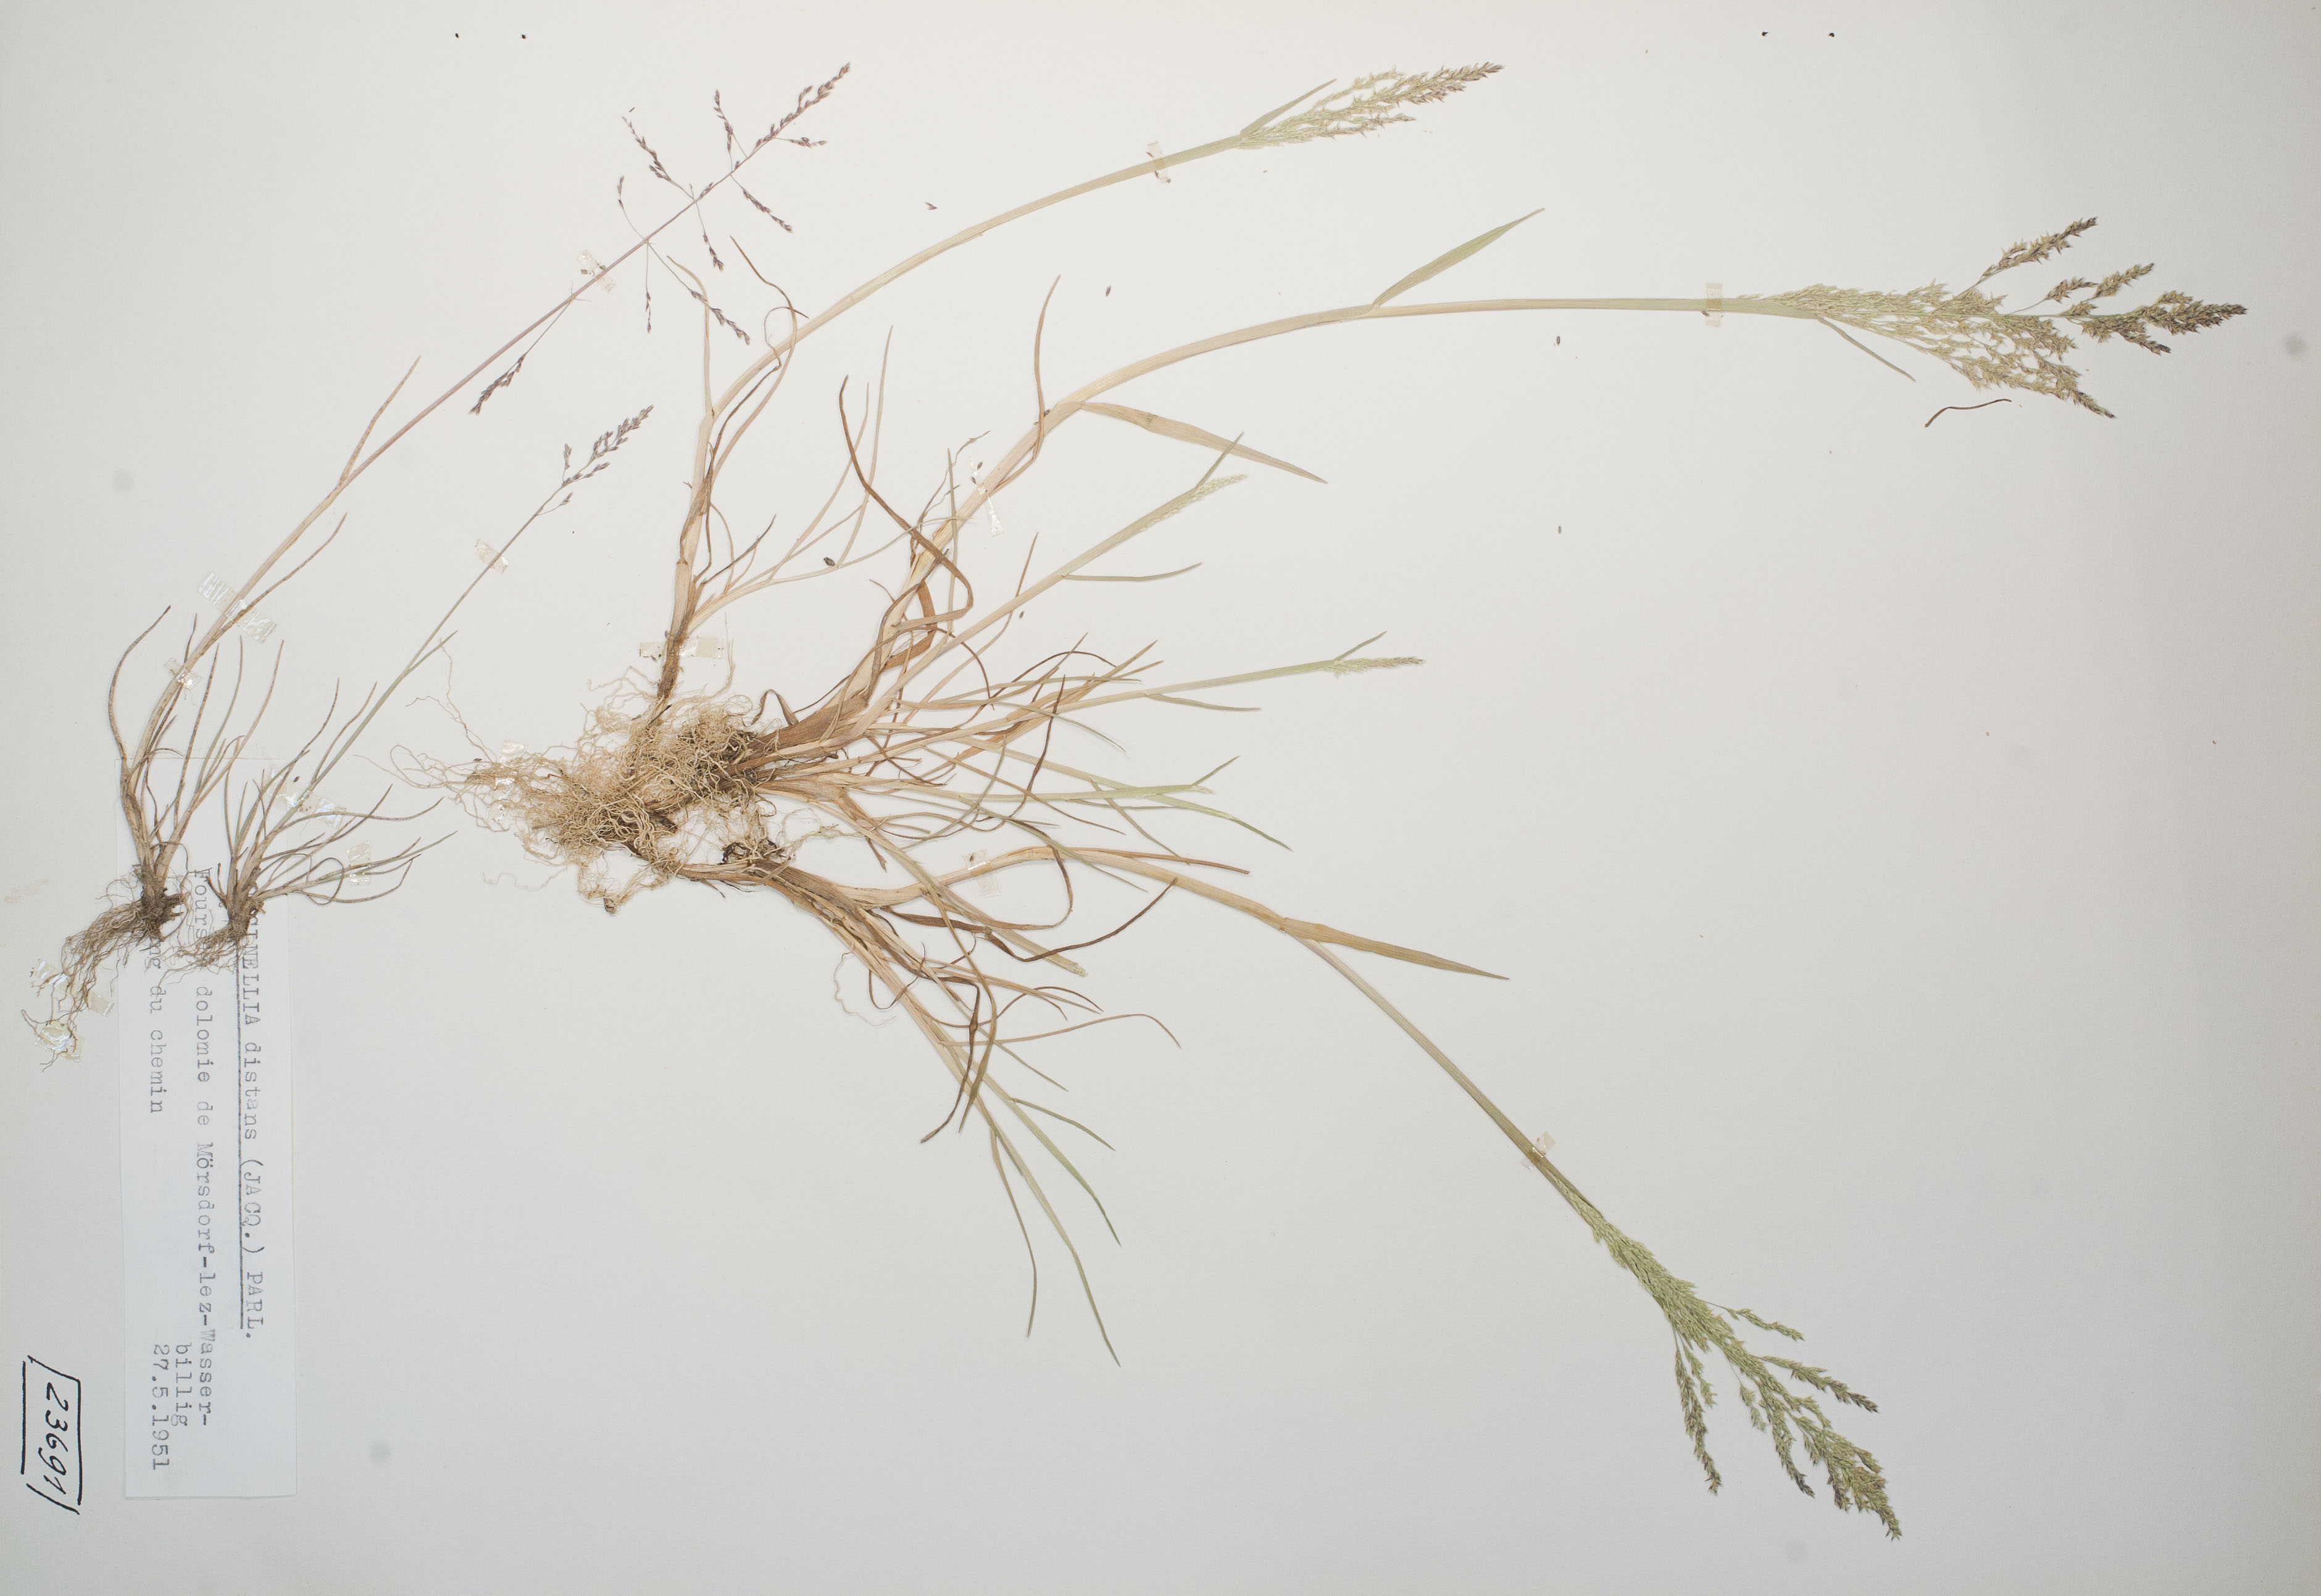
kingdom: Plantae
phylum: Tracheophyta
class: Liliopsida
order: Poales
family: Poaceae
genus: Puccinellia
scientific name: Puccinellia distans
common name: Weeping alkaligrass
